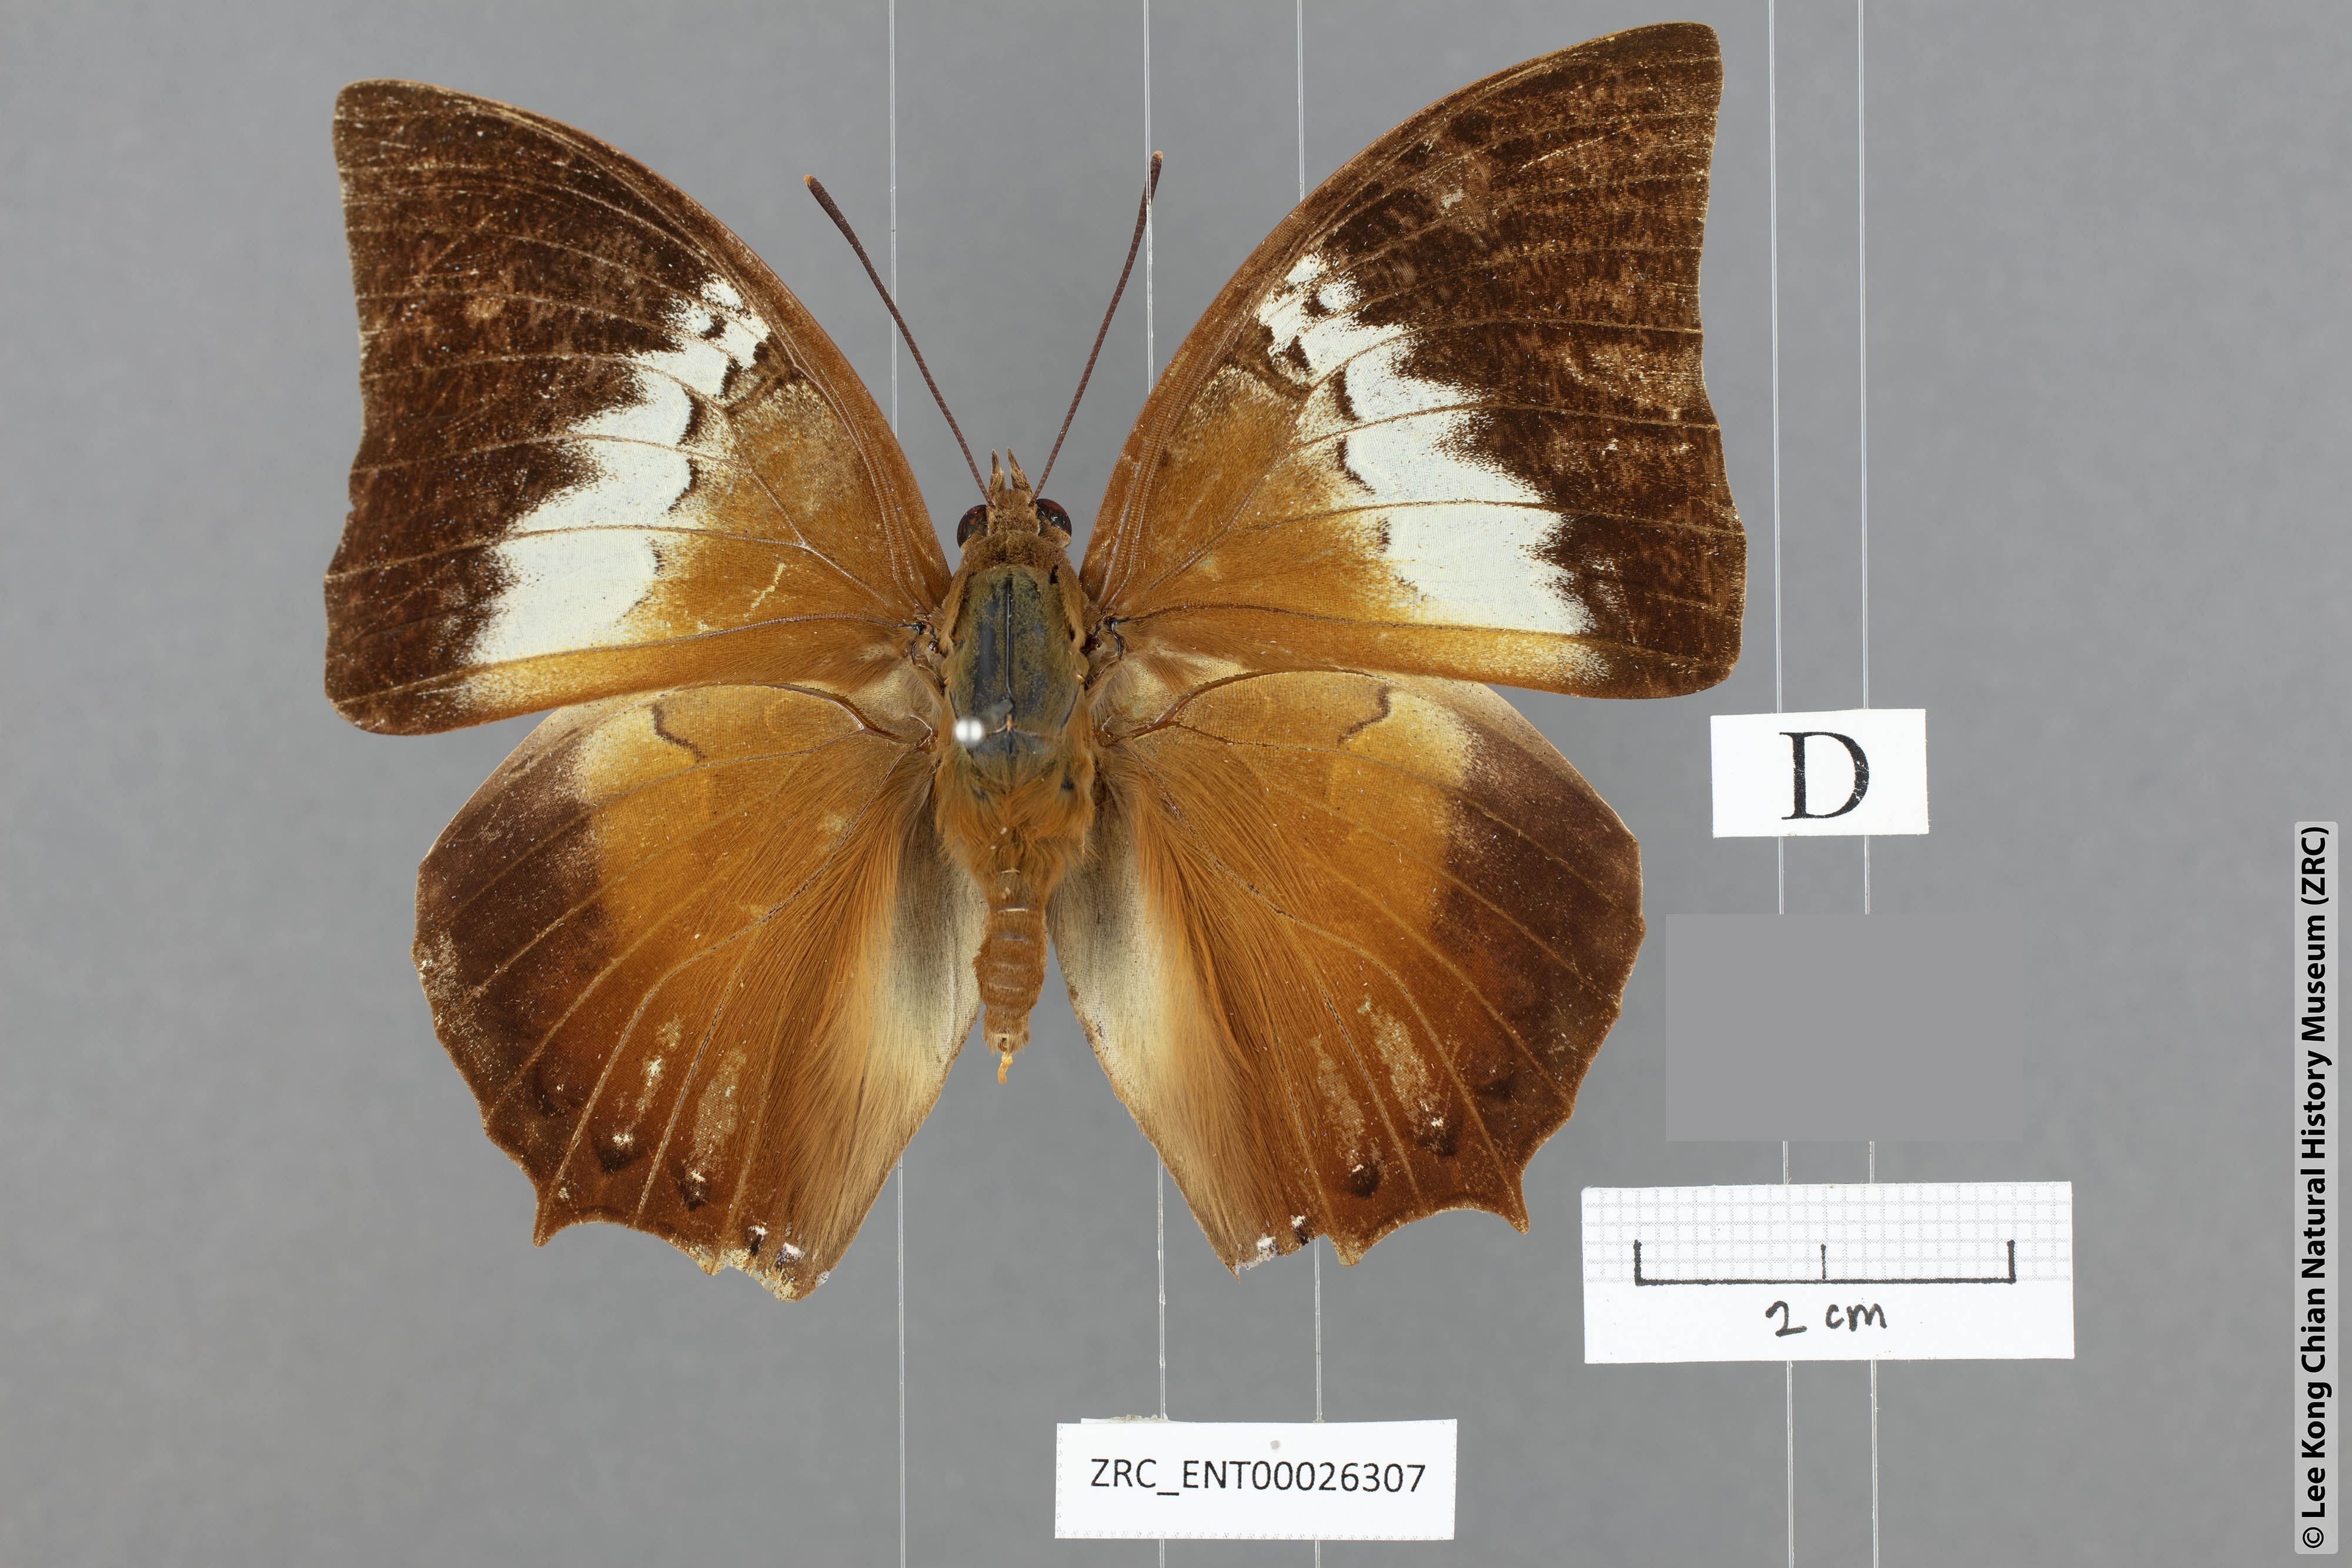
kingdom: Animalia
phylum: Arthropoda
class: Insecta
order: Lepidoptera
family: Nymphalidae
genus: Charaxes
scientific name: Charaxes borneensis
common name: White-banded rajah
